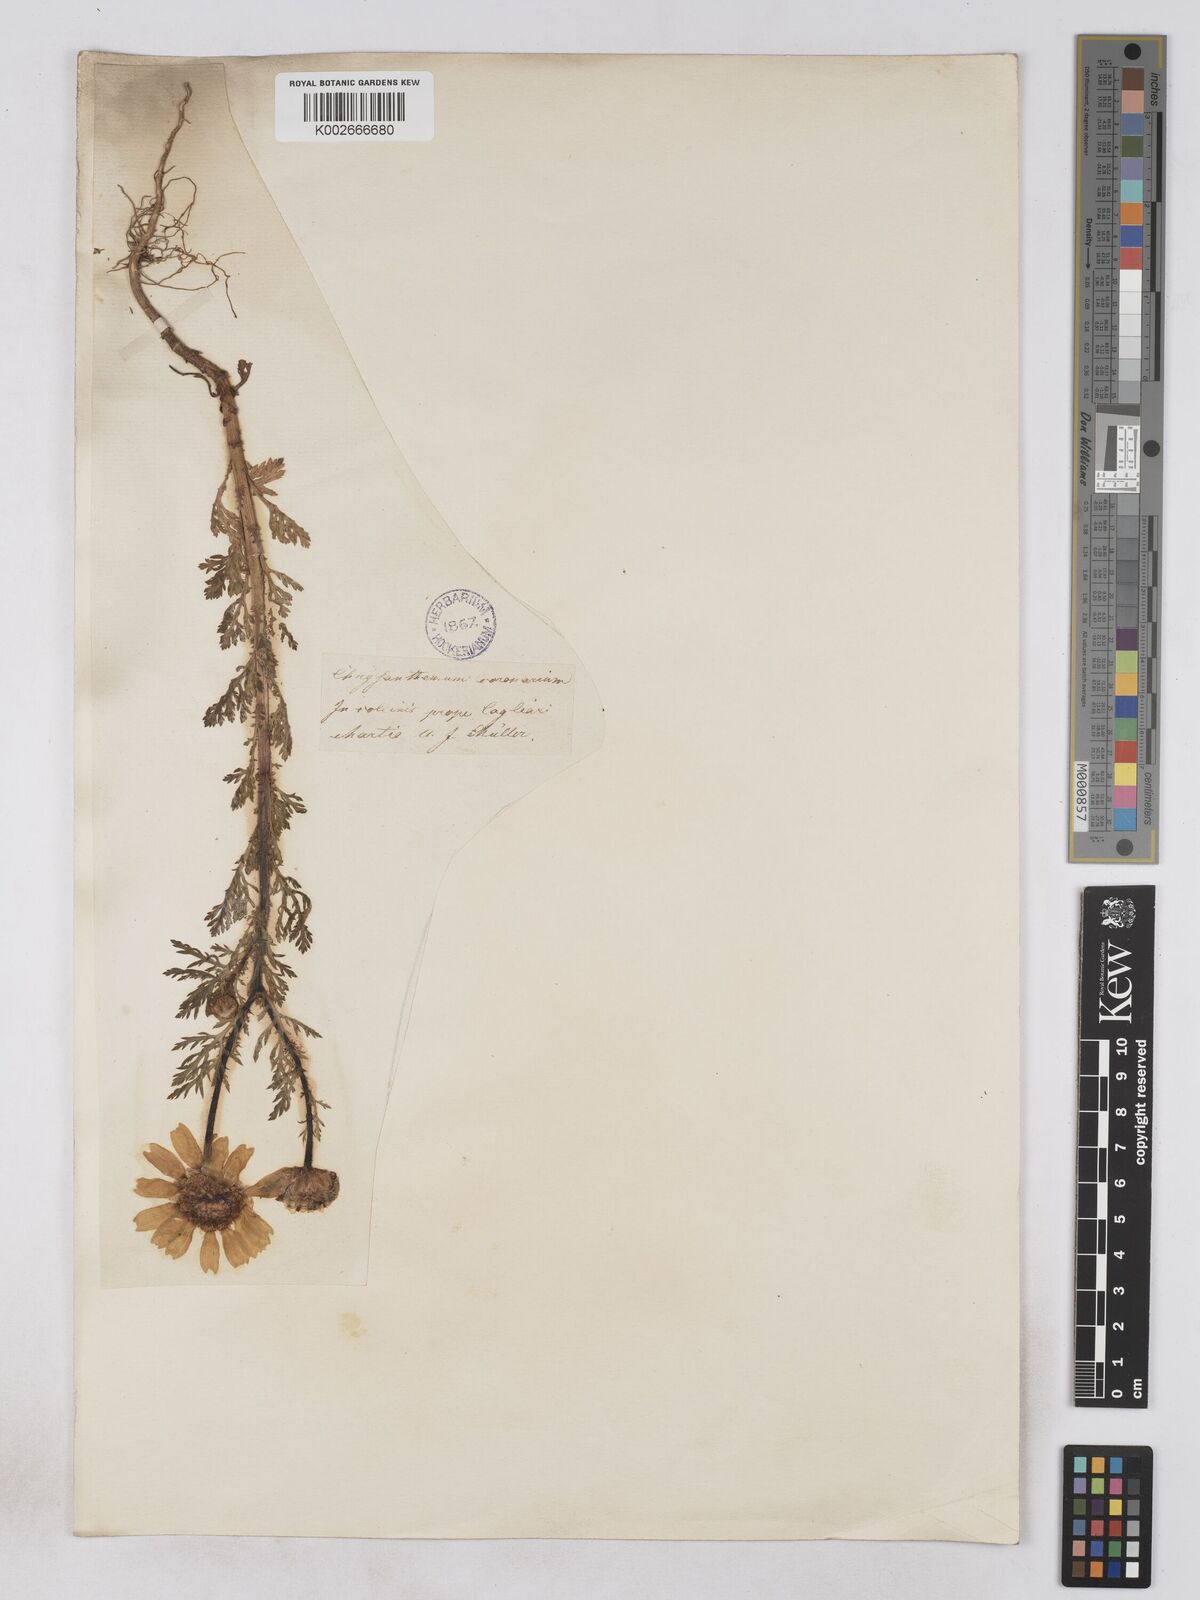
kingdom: Plantae
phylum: Tracheophyta
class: Magnoliopsida
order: Asterales
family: Asteraceae
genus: Glebionis
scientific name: Glebionis coronaria
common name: Crowndaisy
